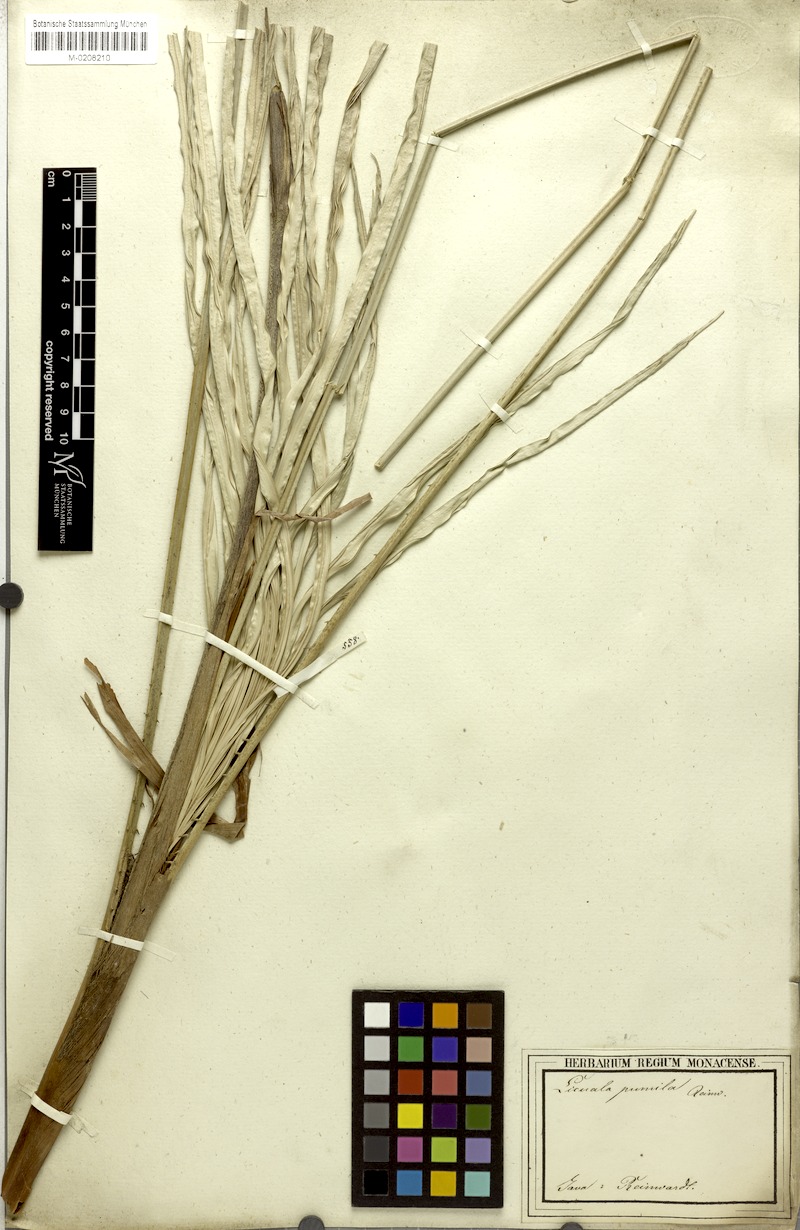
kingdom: Plantae
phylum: Tracheophyta
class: Liliopsida
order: Arecales
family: Arecaceae
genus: Licuala
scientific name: Licuala pumila
